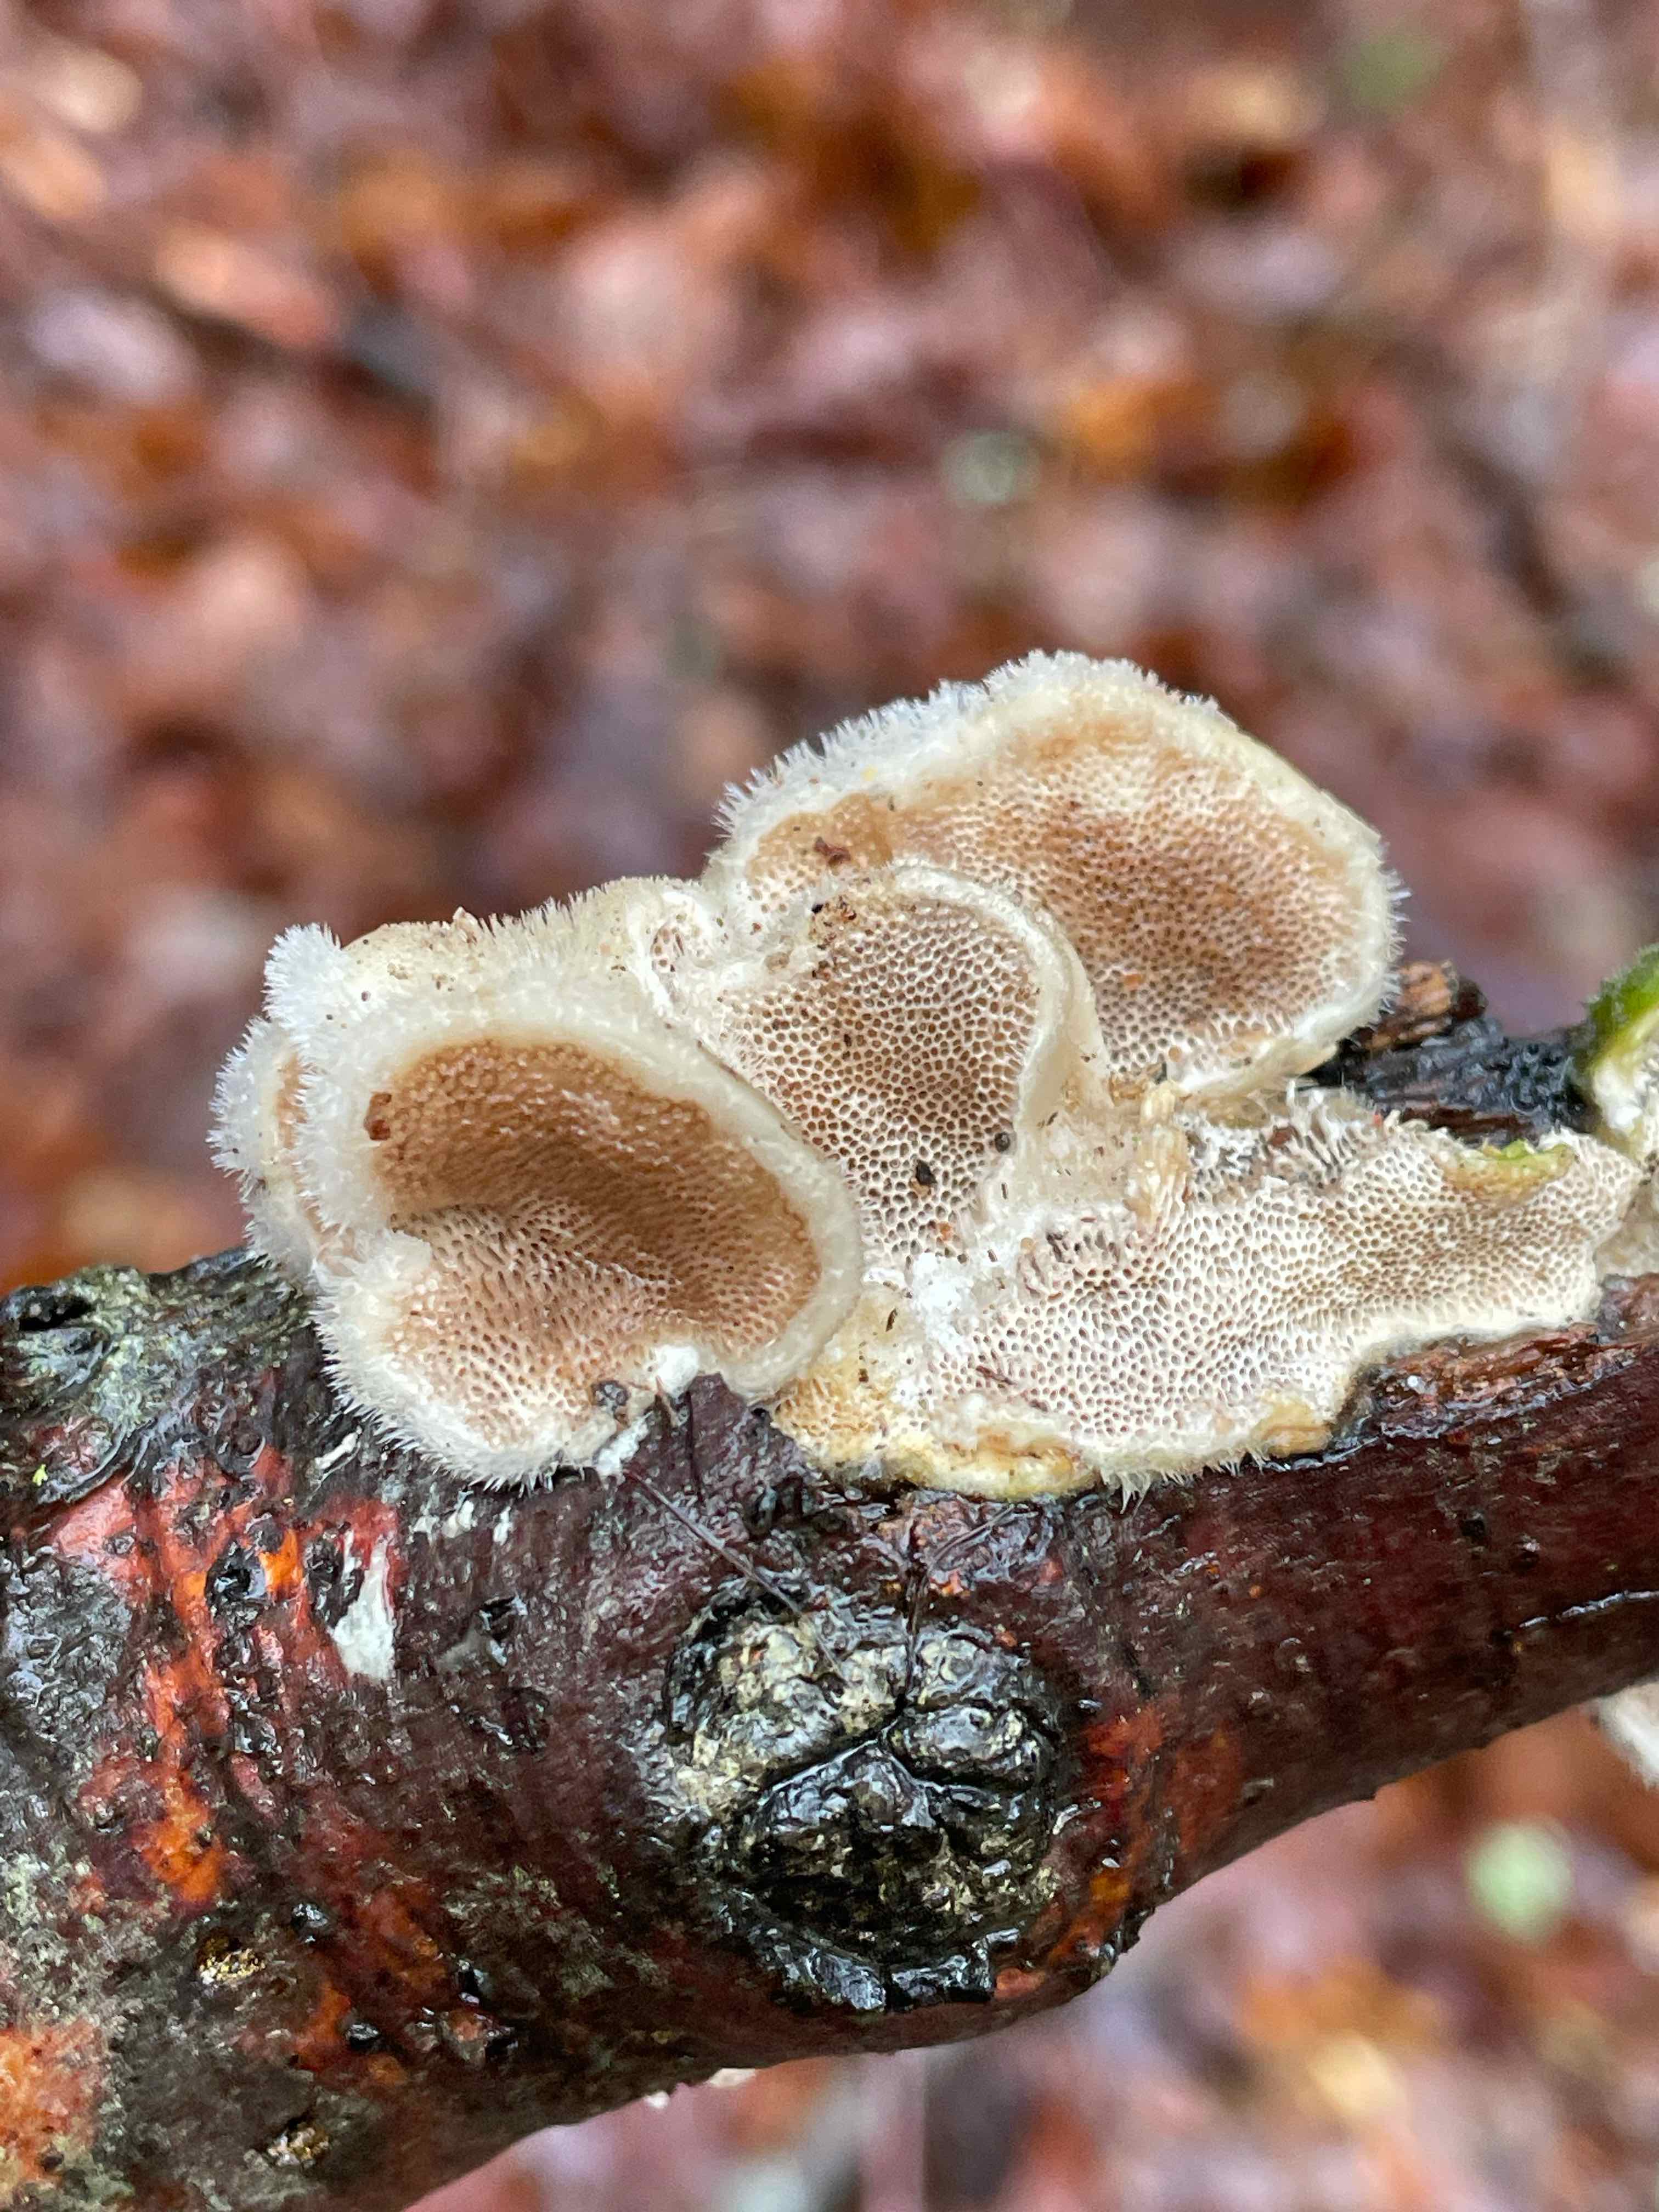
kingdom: Fungi
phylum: Basidiomycota
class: Agaricomycetes
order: Polyporales
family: Polyporaceae
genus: Trametes
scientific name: Trametes hirsuta
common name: håret læderporesvamp
